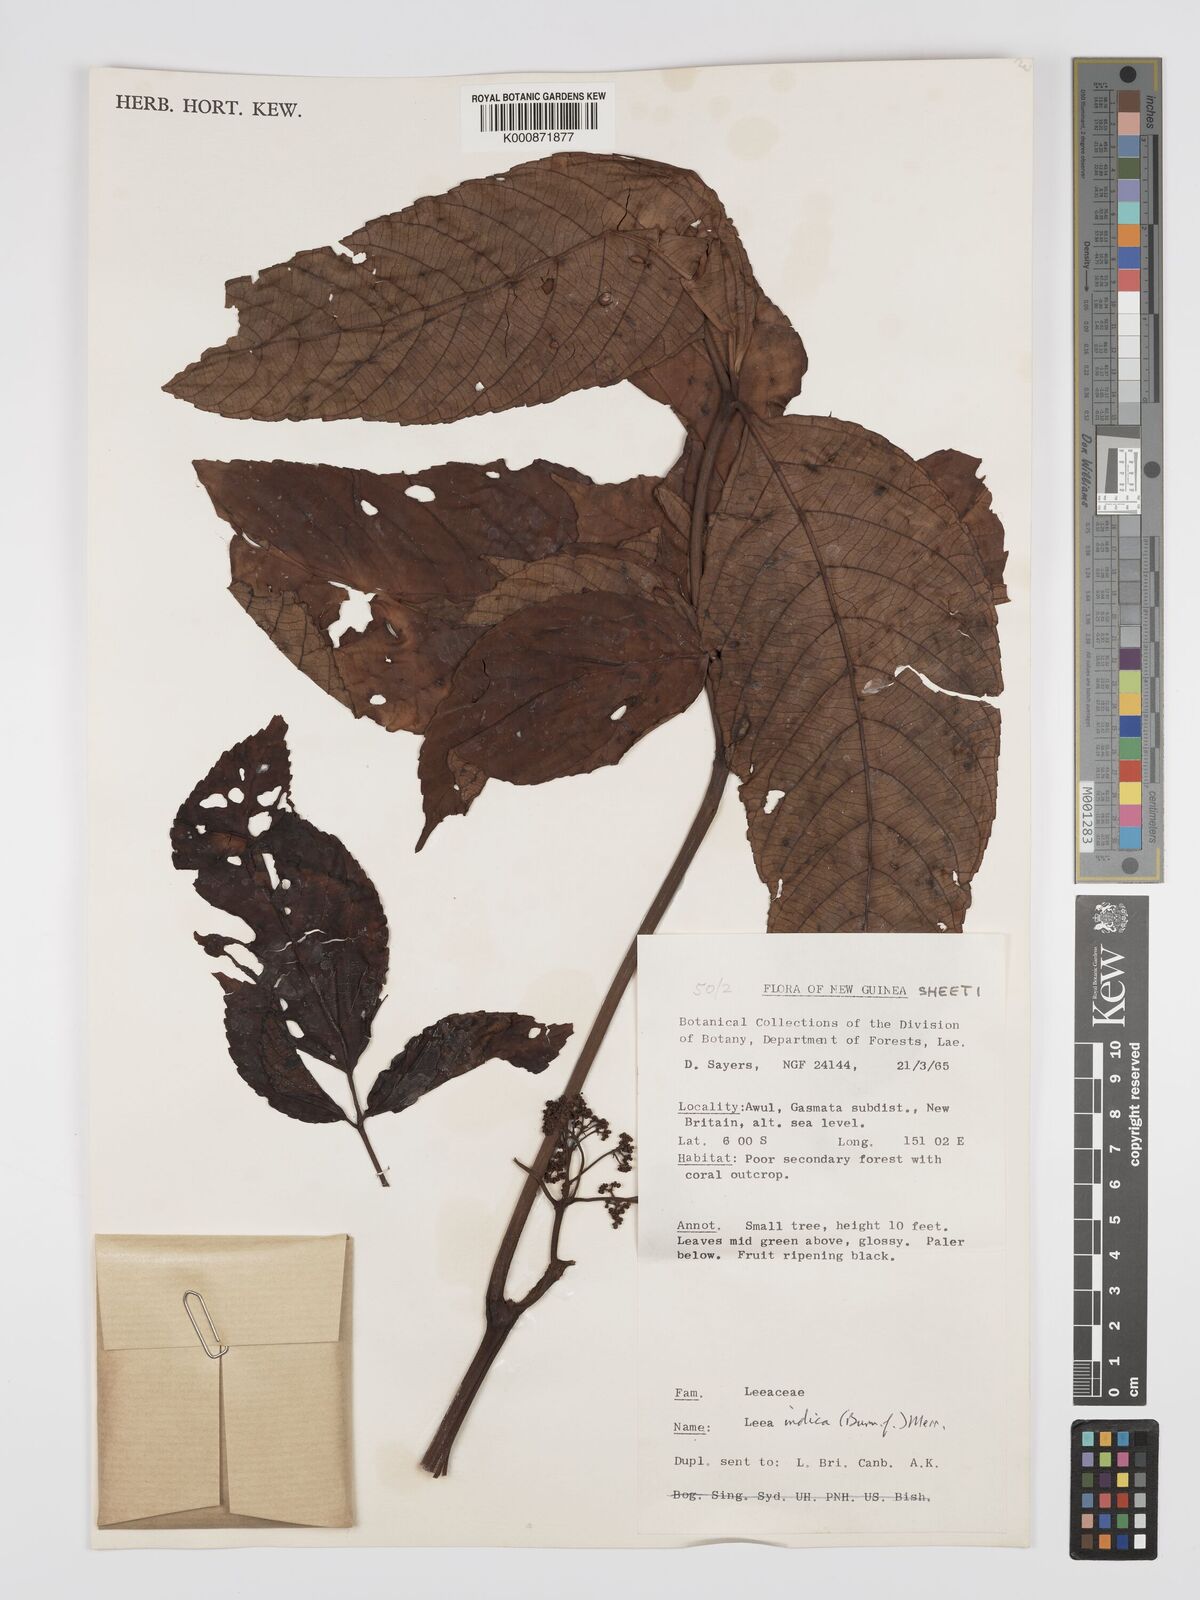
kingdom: Plantae
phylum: Tracheophyta
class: Magnoliopsida
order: Vitales
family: Vitaceae
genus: Leea
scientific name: Leea indica
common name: Bandicoot-berry
